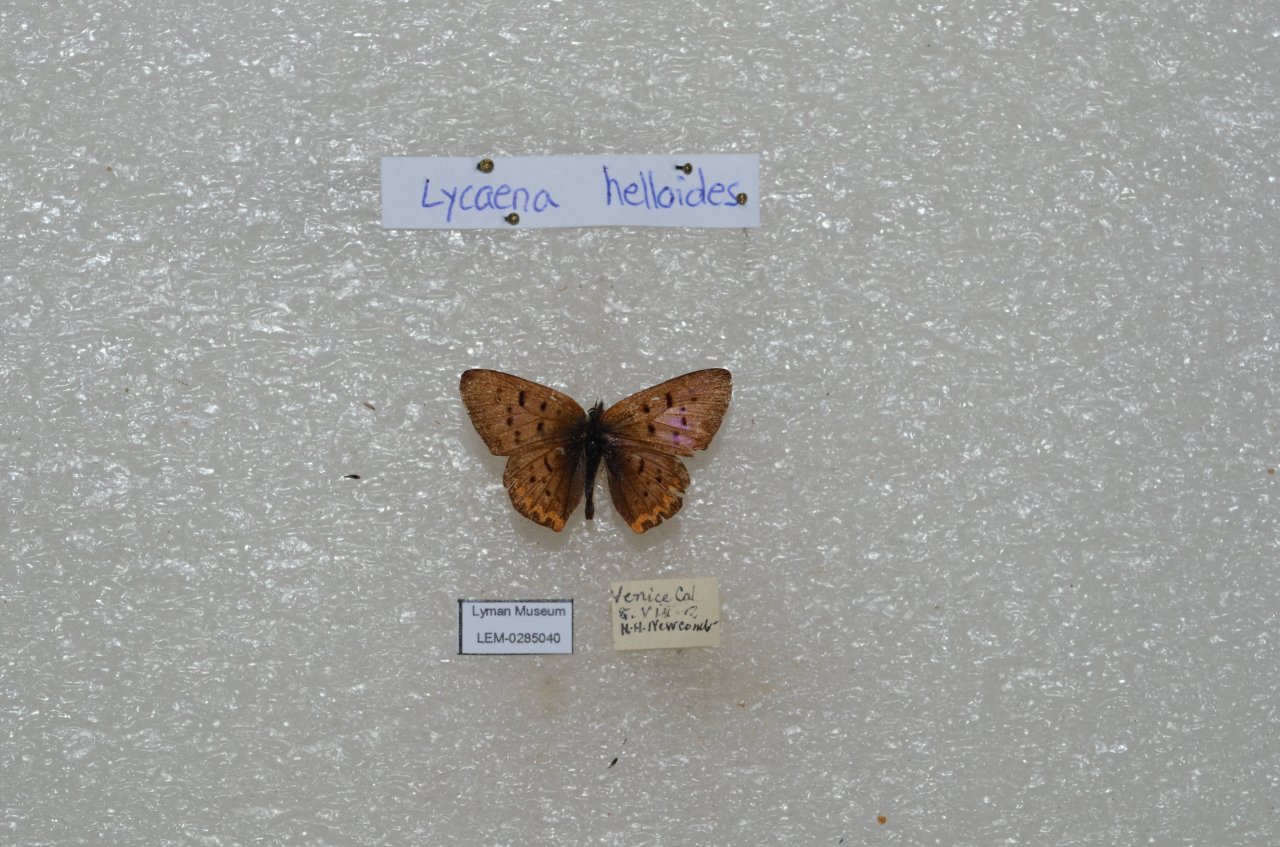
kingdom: Animalia
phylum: Arthropoda
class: Insecta
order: Lepidoptera
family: Sesiidae
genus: Sesia
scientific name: Sesia Lycaena helloides
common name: Purplish Copper
